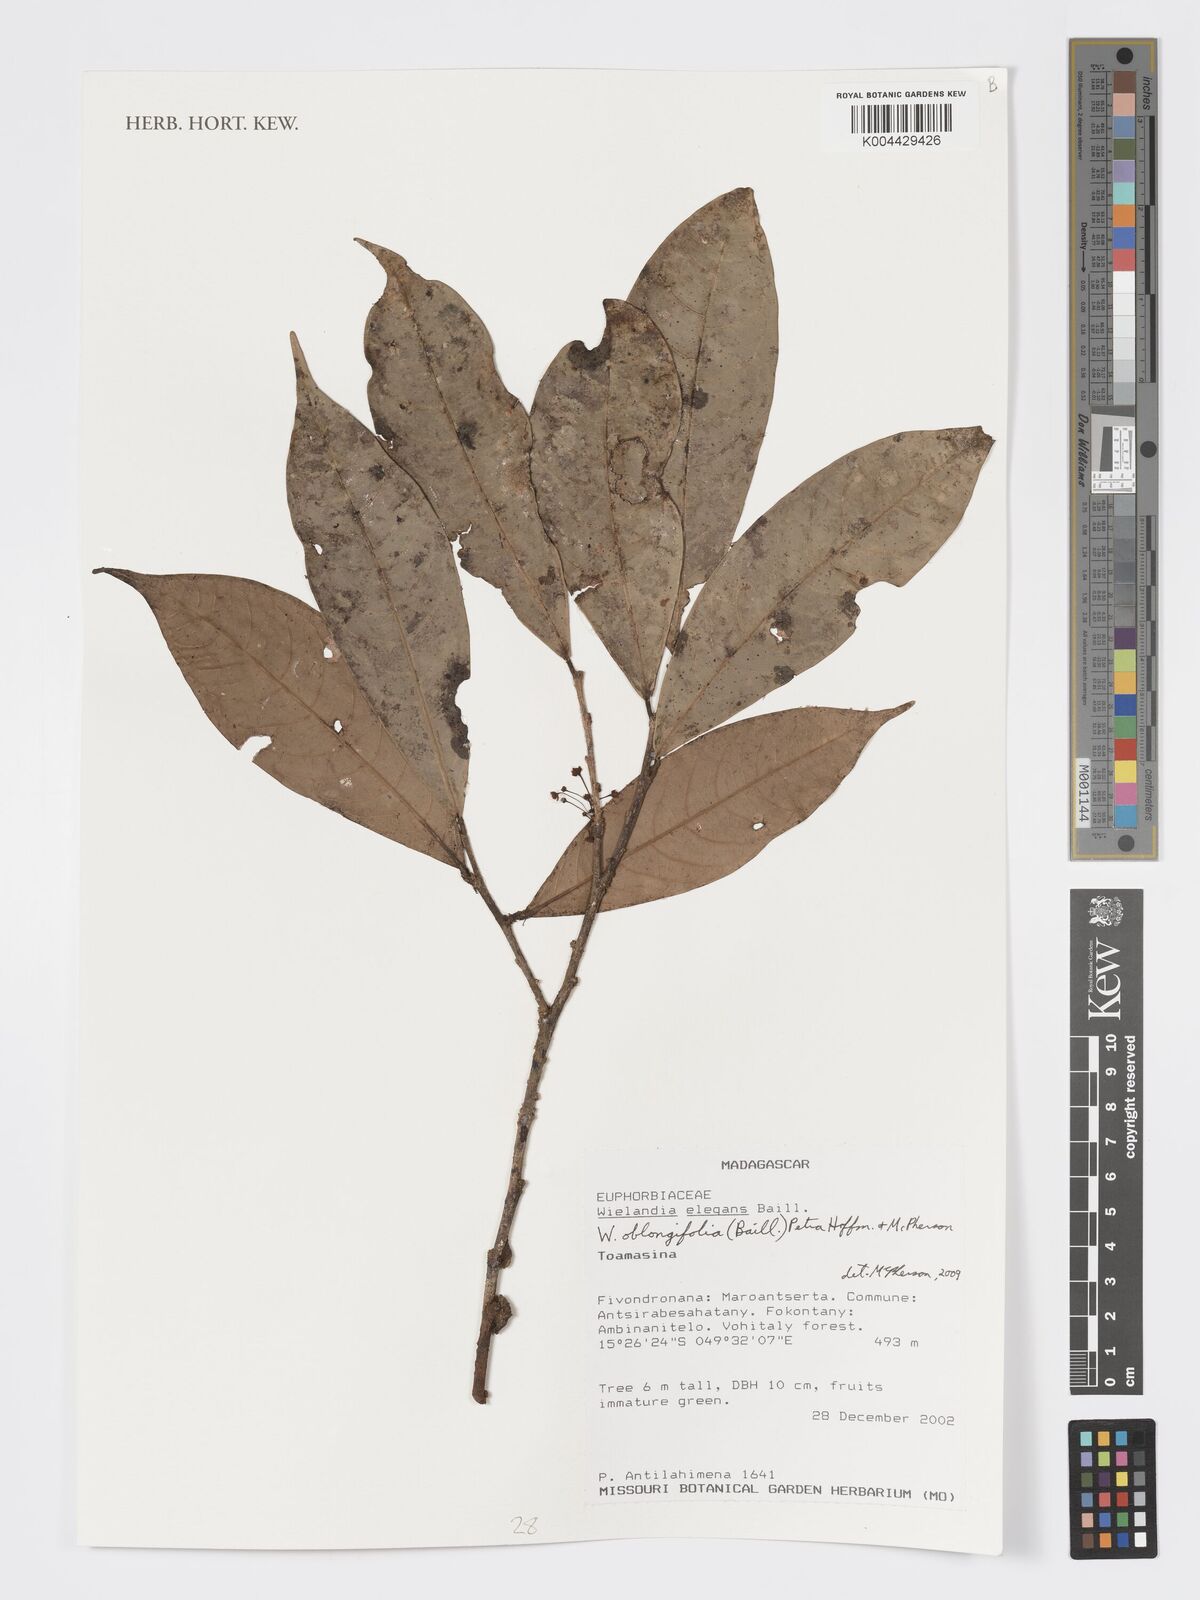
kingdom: Plantae
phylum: Tracheophyta
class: Magnoliopsida
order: Malpighiales
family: Phyllanthaceae
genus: Wielandia
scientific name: Wielandia oblongifolia
